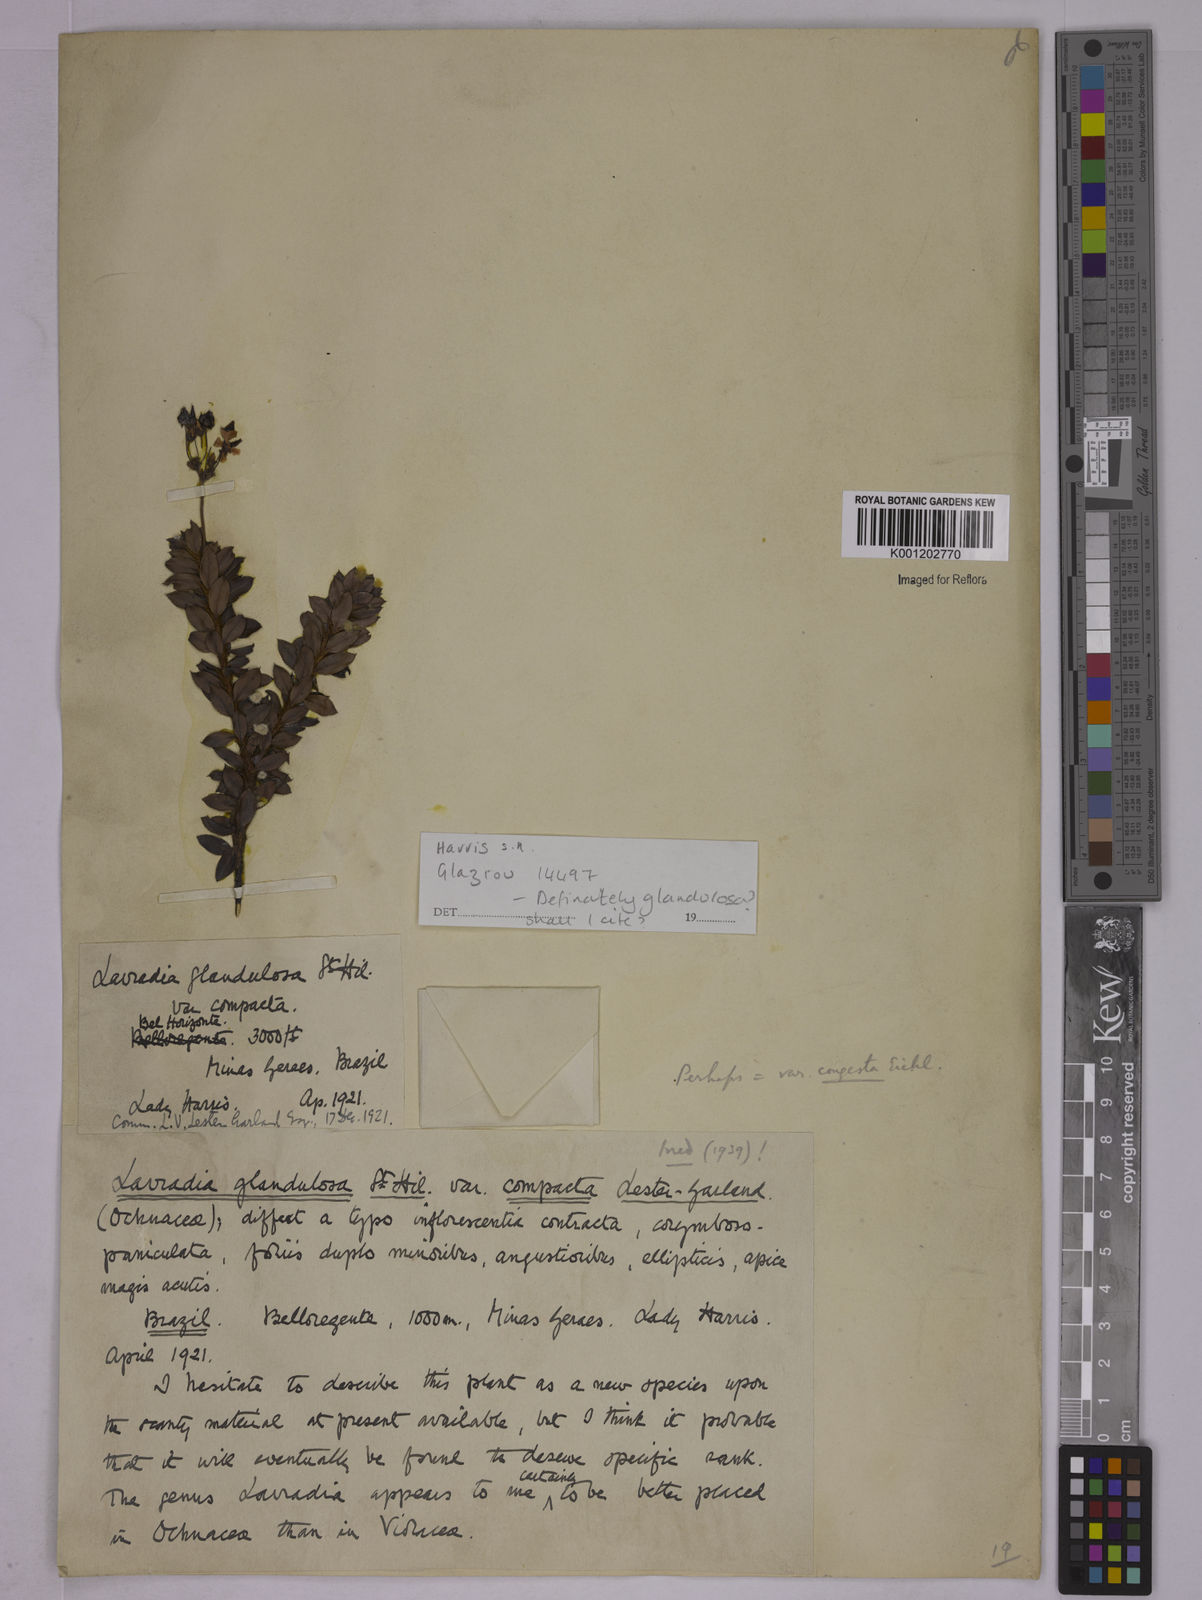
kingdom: Plantae
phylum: Tracheophyta
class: Magnoliopsida
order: Malpighiales
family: Ochnaceae
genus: Sauvagesia
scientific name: Sauvagesia elegantissima
